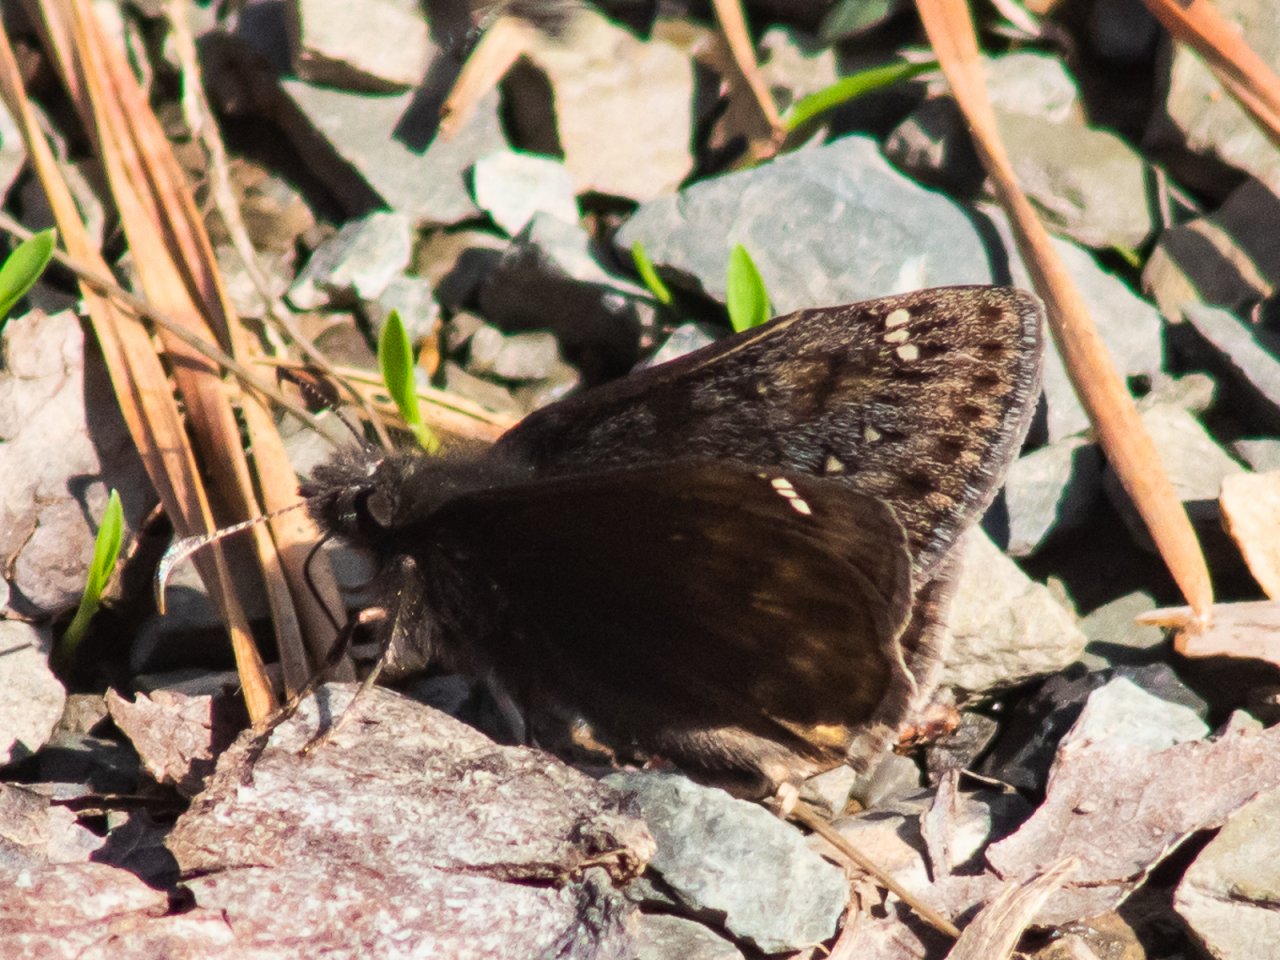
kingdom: Animalia
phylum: Arthropoda
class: Insecta
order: Lepidoptera
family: Hesperiidae
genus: Gesta
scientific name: Gesta
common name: Juvenal's Duskywing
